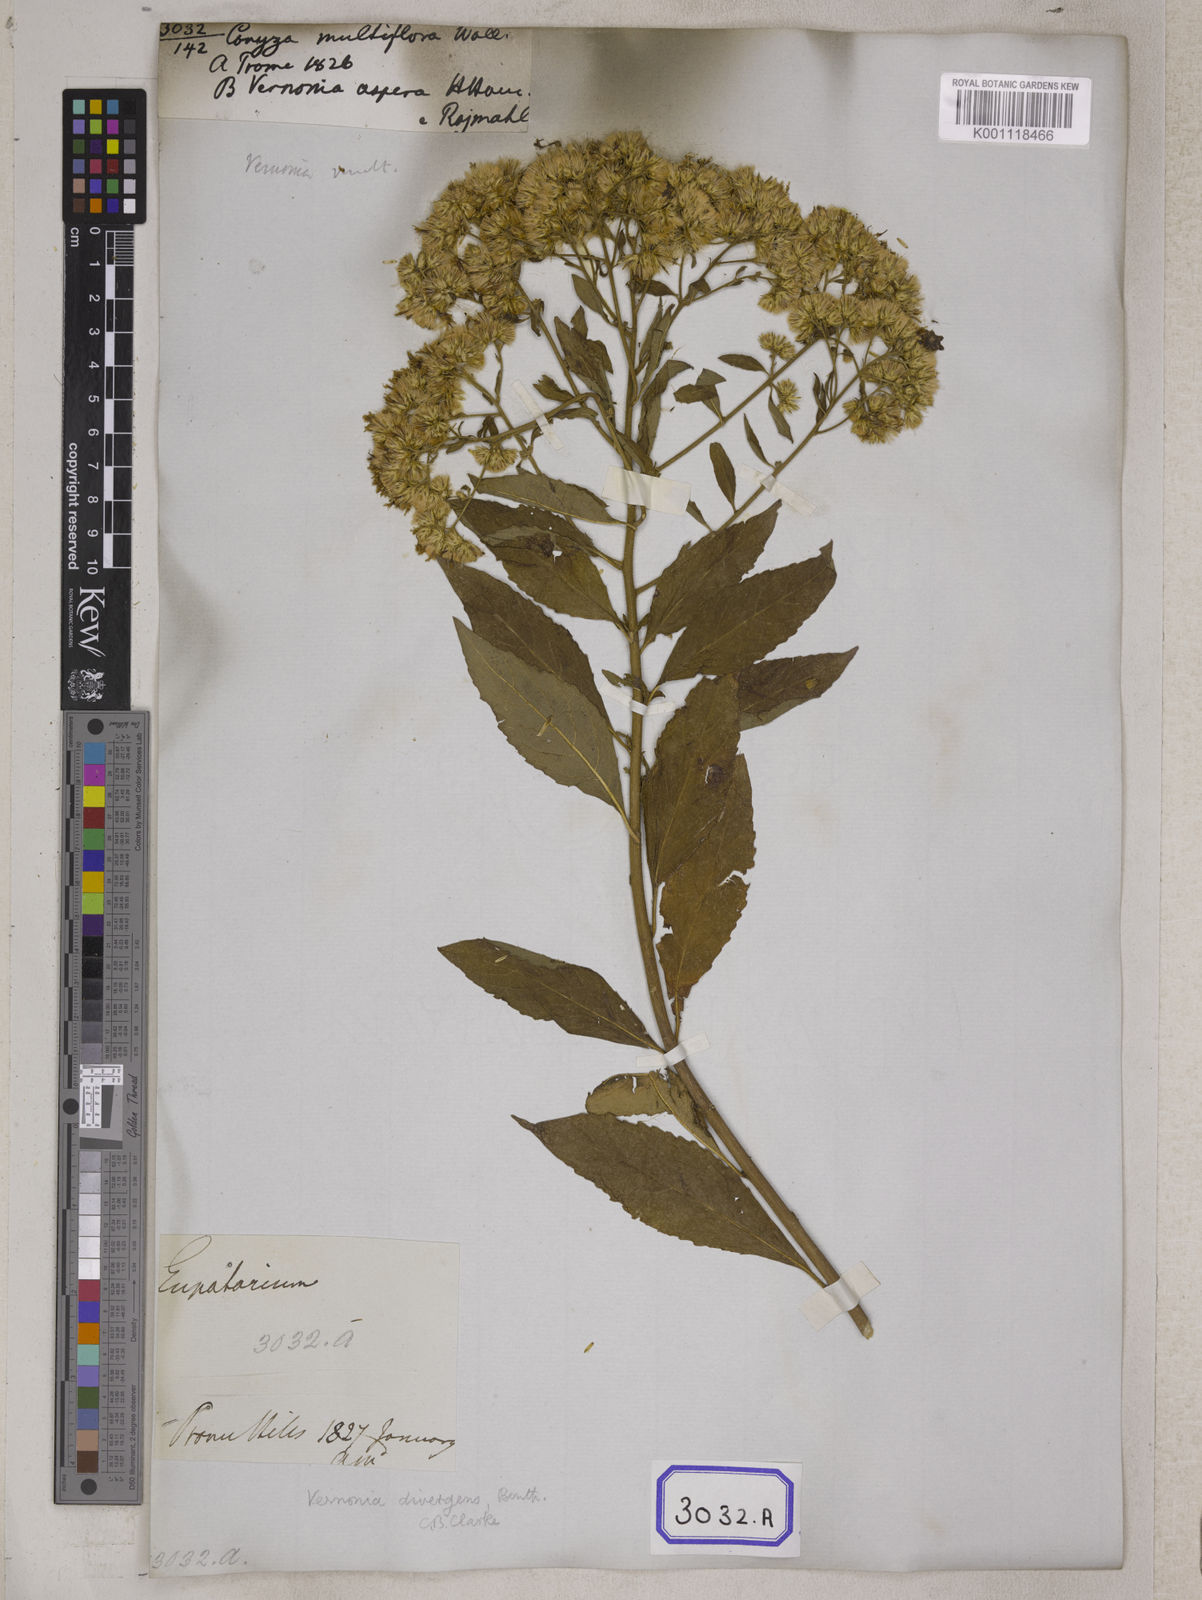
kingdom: Plantae
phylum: Tracheophyta
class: Magnoliopsida
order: Asterales
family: Asteraceae
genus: Acilepis
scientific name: Acilepis divergens
